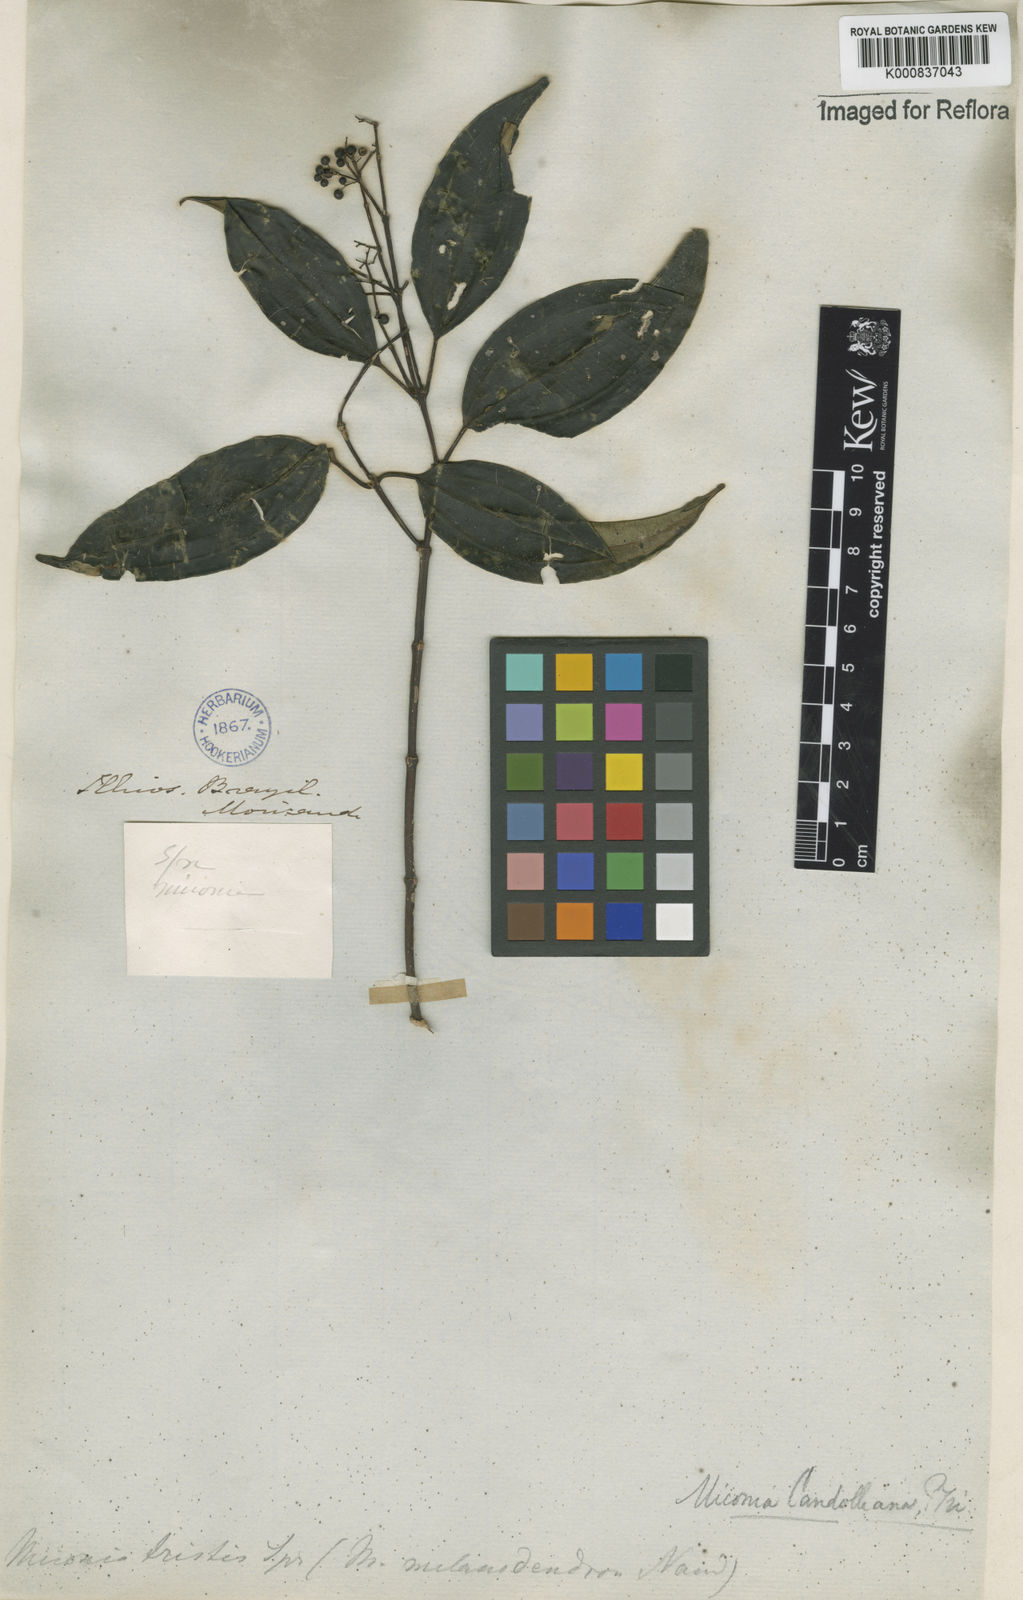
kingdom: Plantae
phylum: Tracheophyta
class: Magnoliopsida
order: Myrtales
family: Melastomataceae
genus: Miconia
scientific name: Miconia cinnamomifolia
